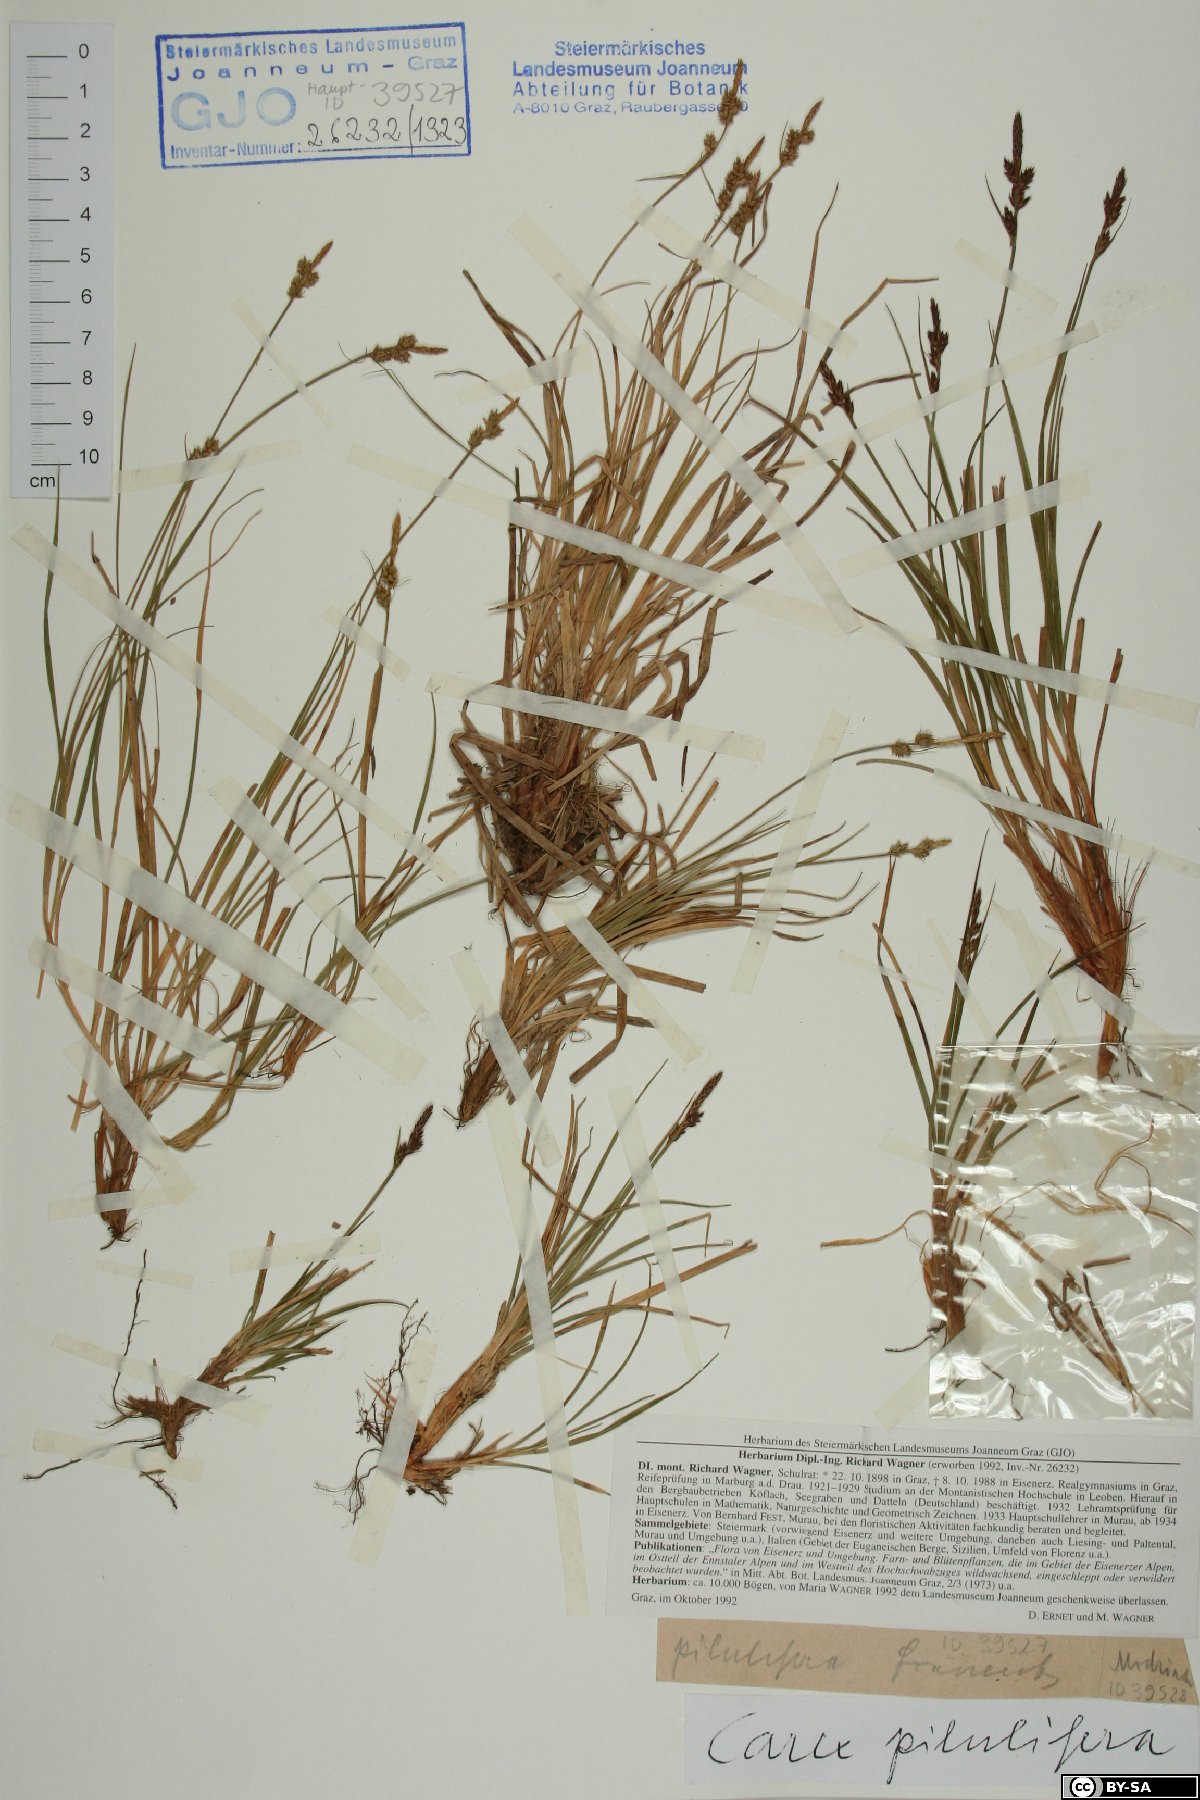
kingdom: Plantae
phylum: Tracheophyta
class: Liliopsida
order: Poales
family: Cyperaceae
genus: Carex
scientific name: Carex pilulifera
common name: Pill sedge
